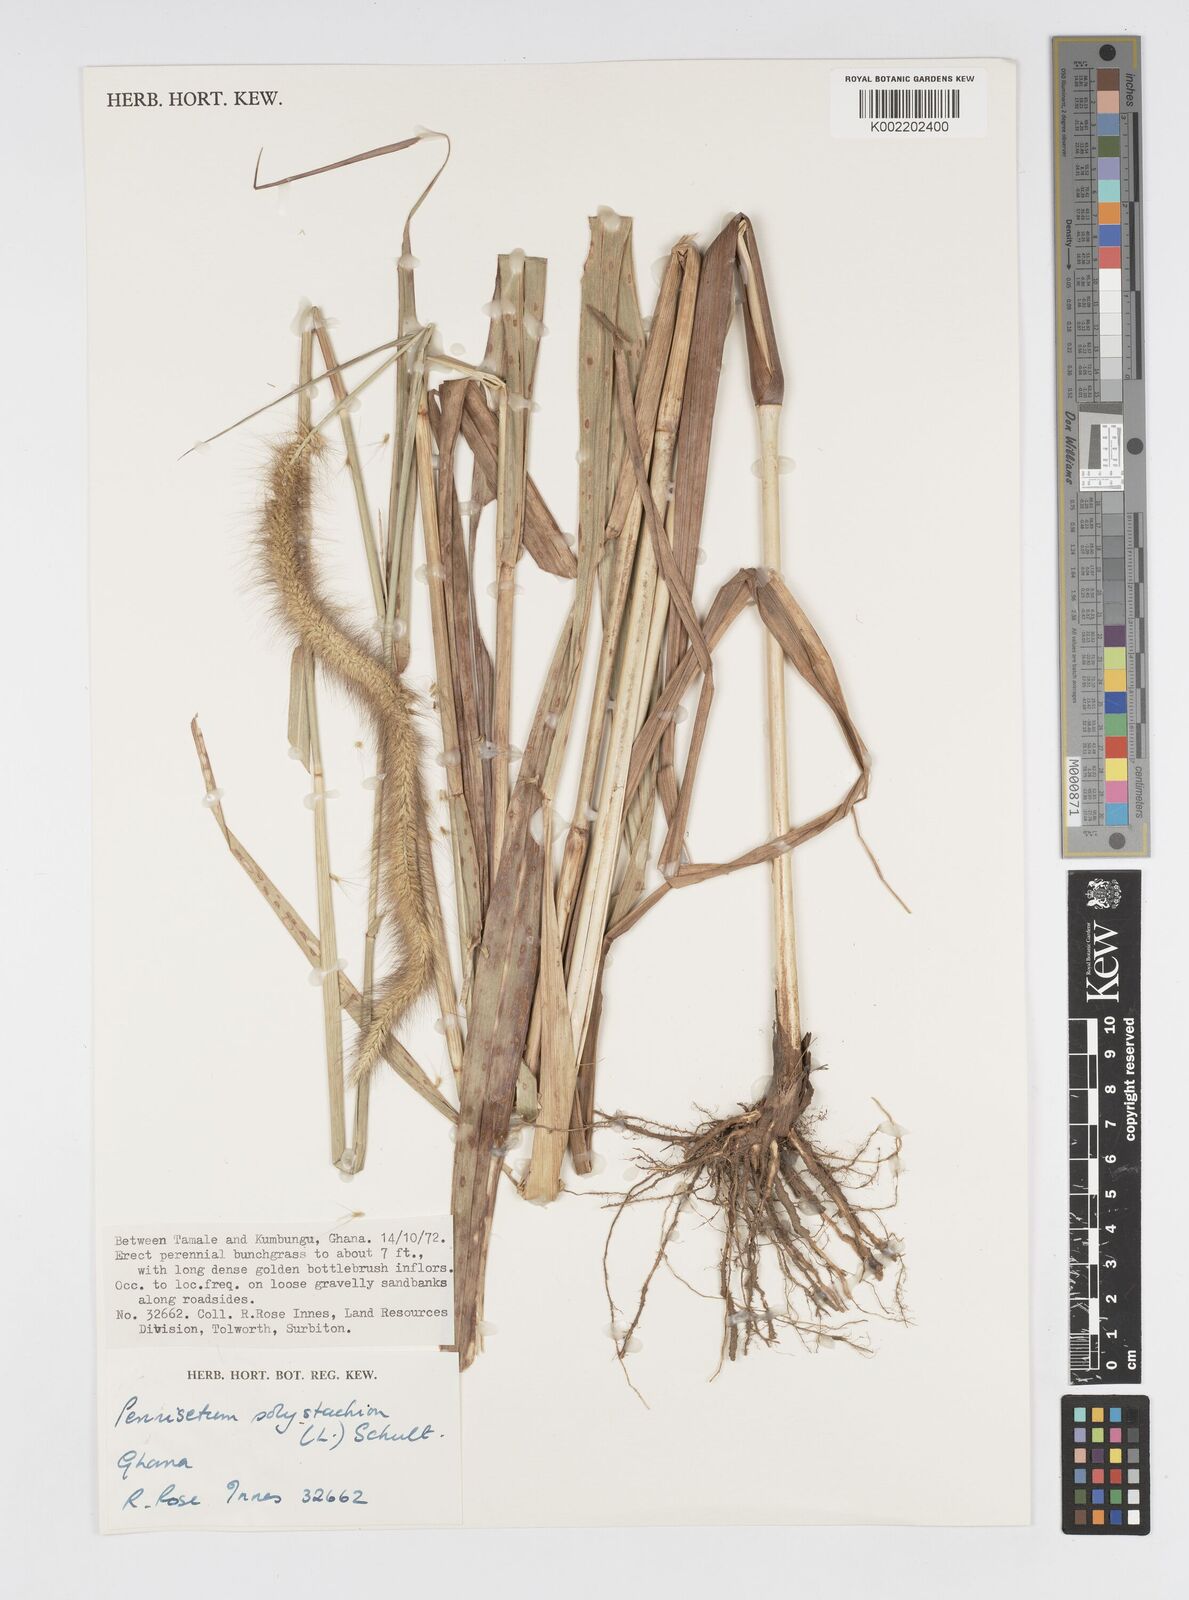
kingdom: Plantae
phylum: Tracheophyta
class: Liliopsida
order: Poales
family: Poaceae
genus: Setaria
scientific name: Setaria parviflora
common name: Knotroot bristle-grass
